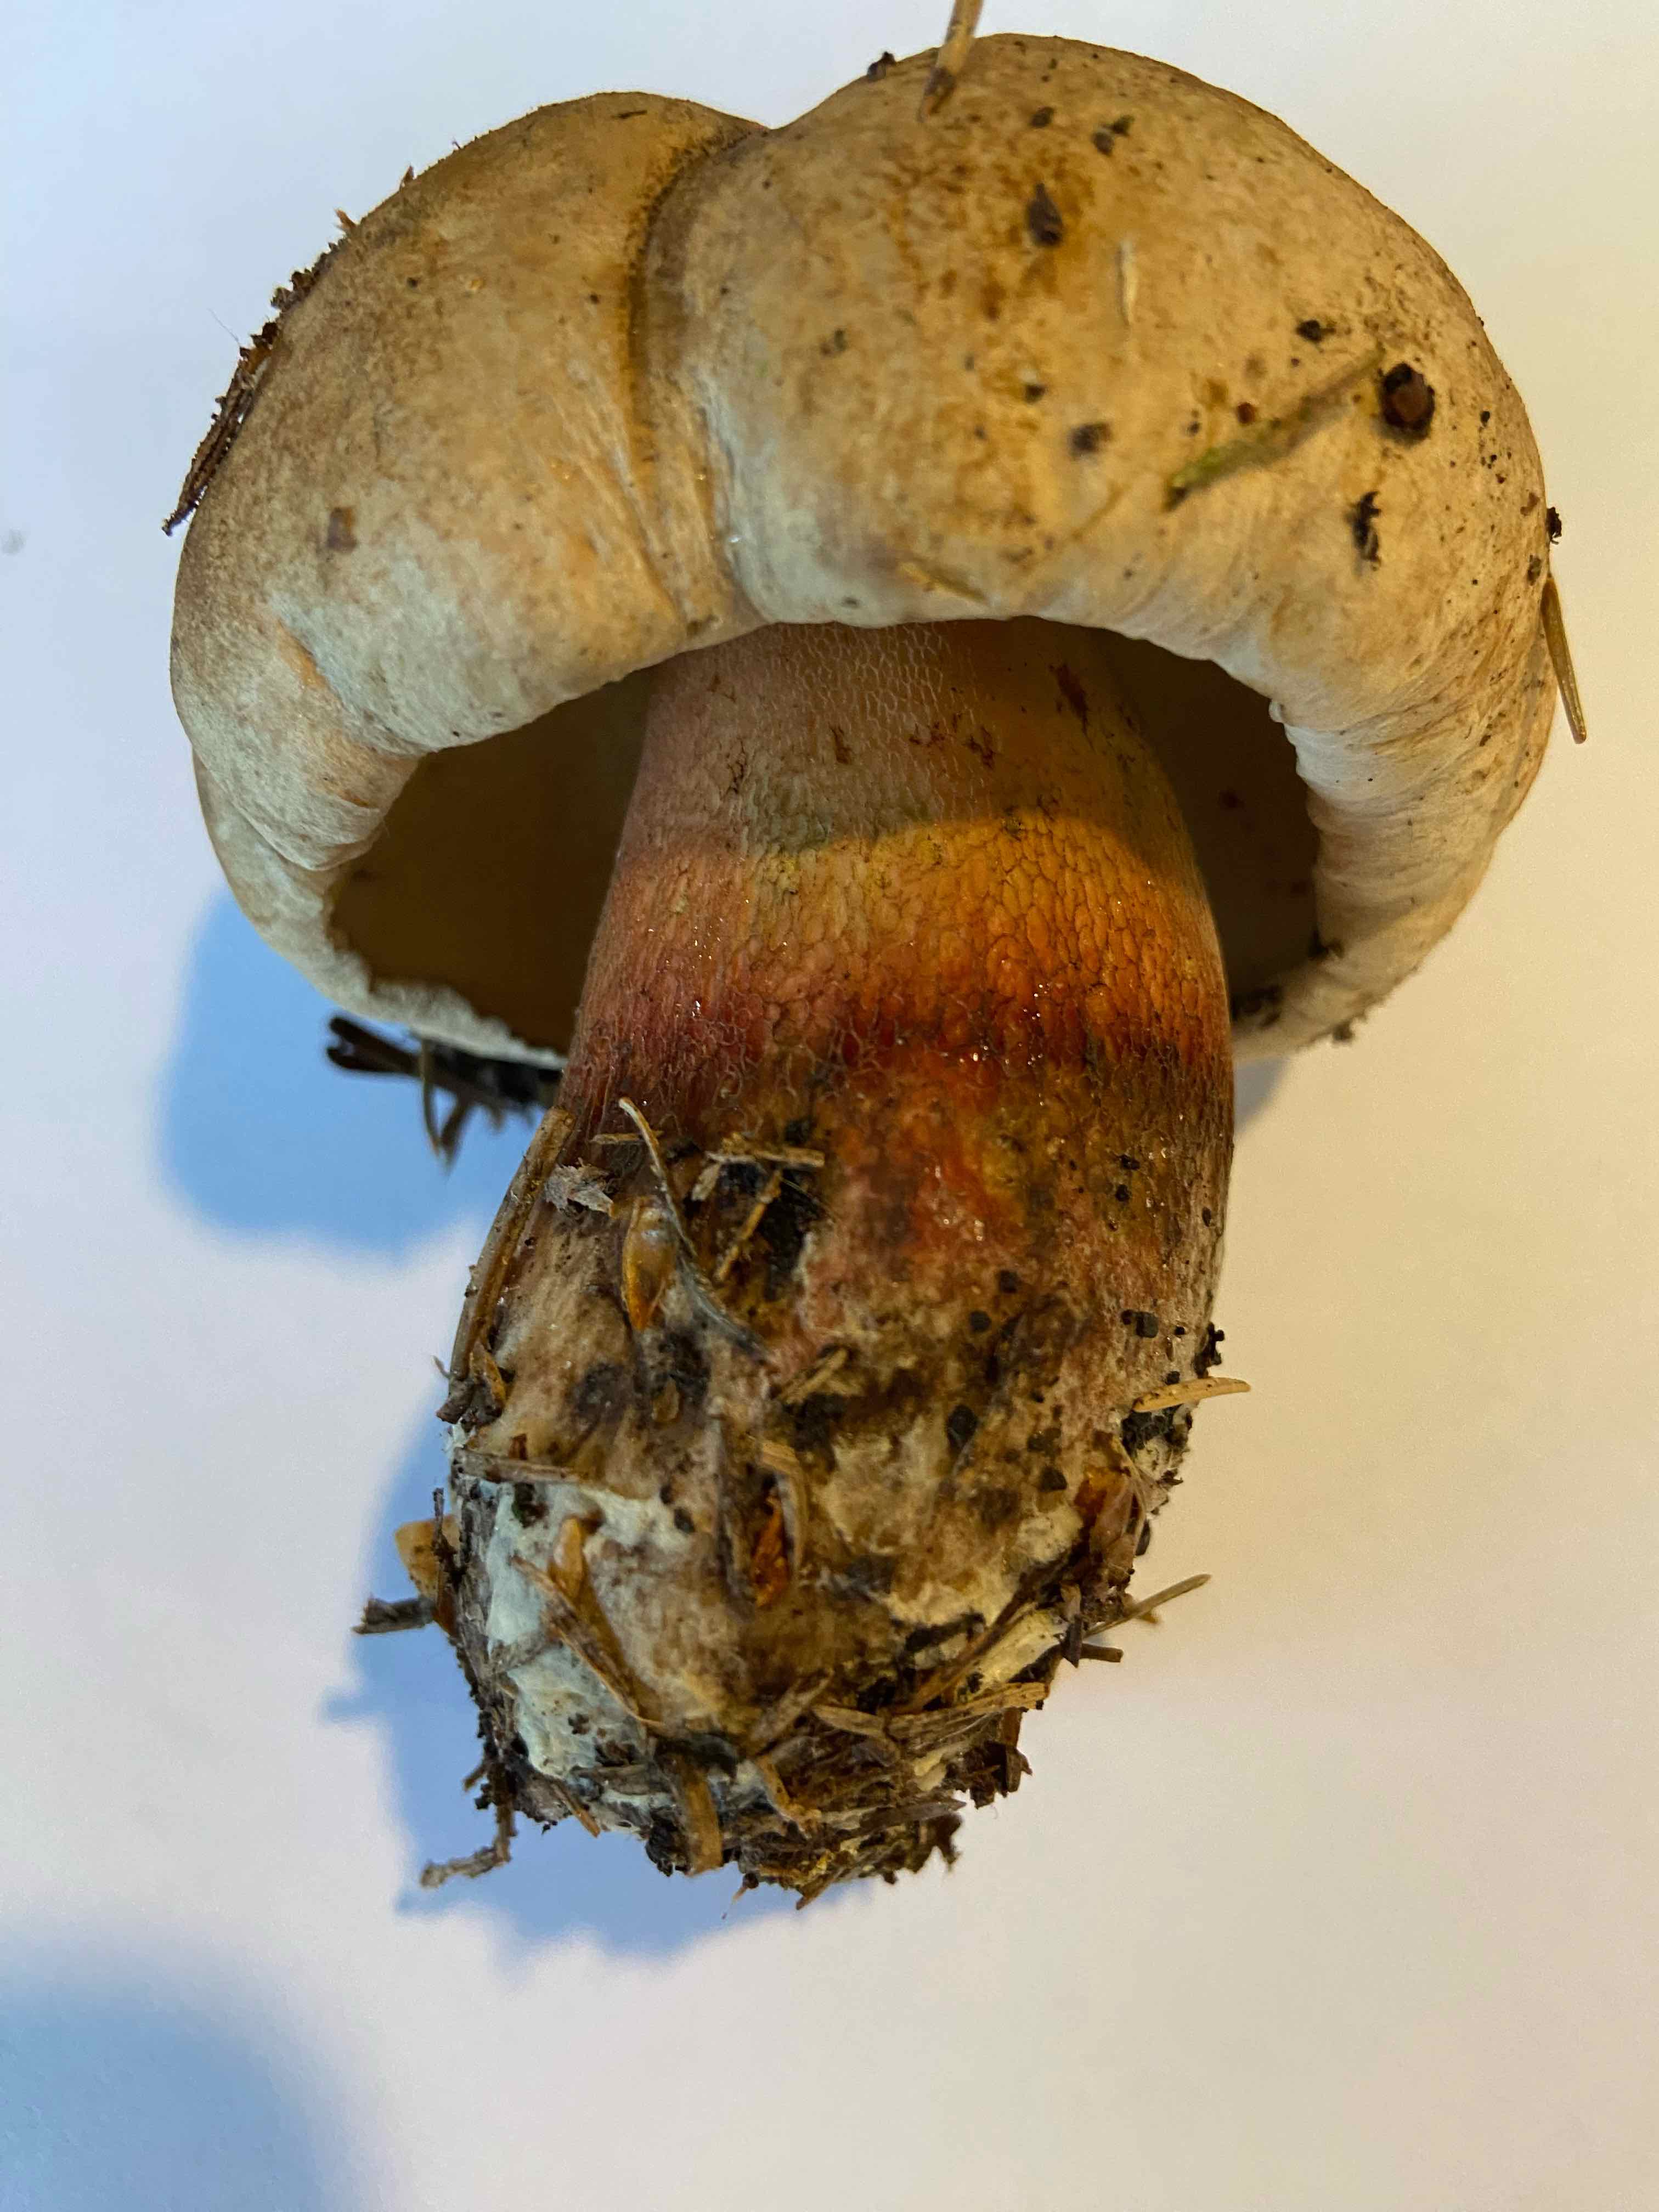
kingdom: Fungi
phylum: Basidiomycota
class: Agaricomycetes
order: Boletales
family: Boletaceae
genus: Caloboletus
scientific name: Caloboletus calopus
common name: skønfodet rørhat
